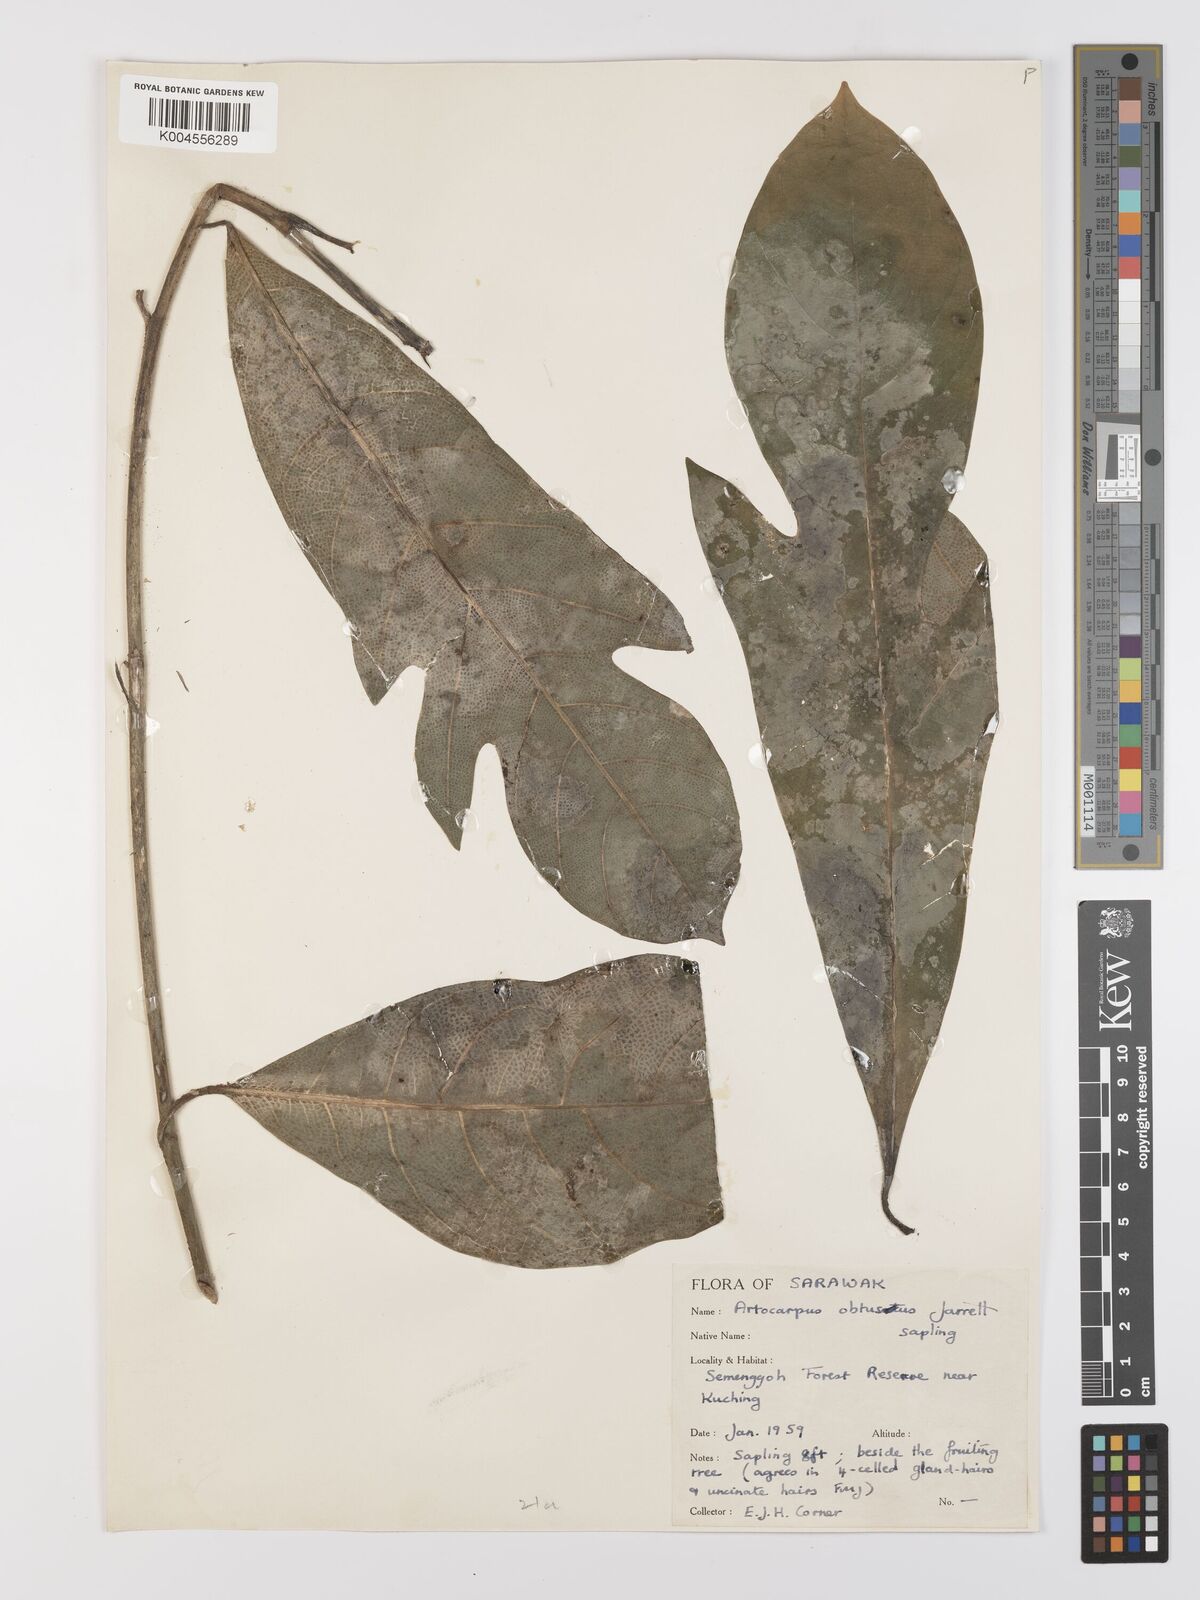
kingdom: Plantae
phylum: Tracheophyta
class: Magnoliopsida
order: Rosales
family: Moraceae
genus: Artocarpus
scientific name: Artocarpus obtusus
